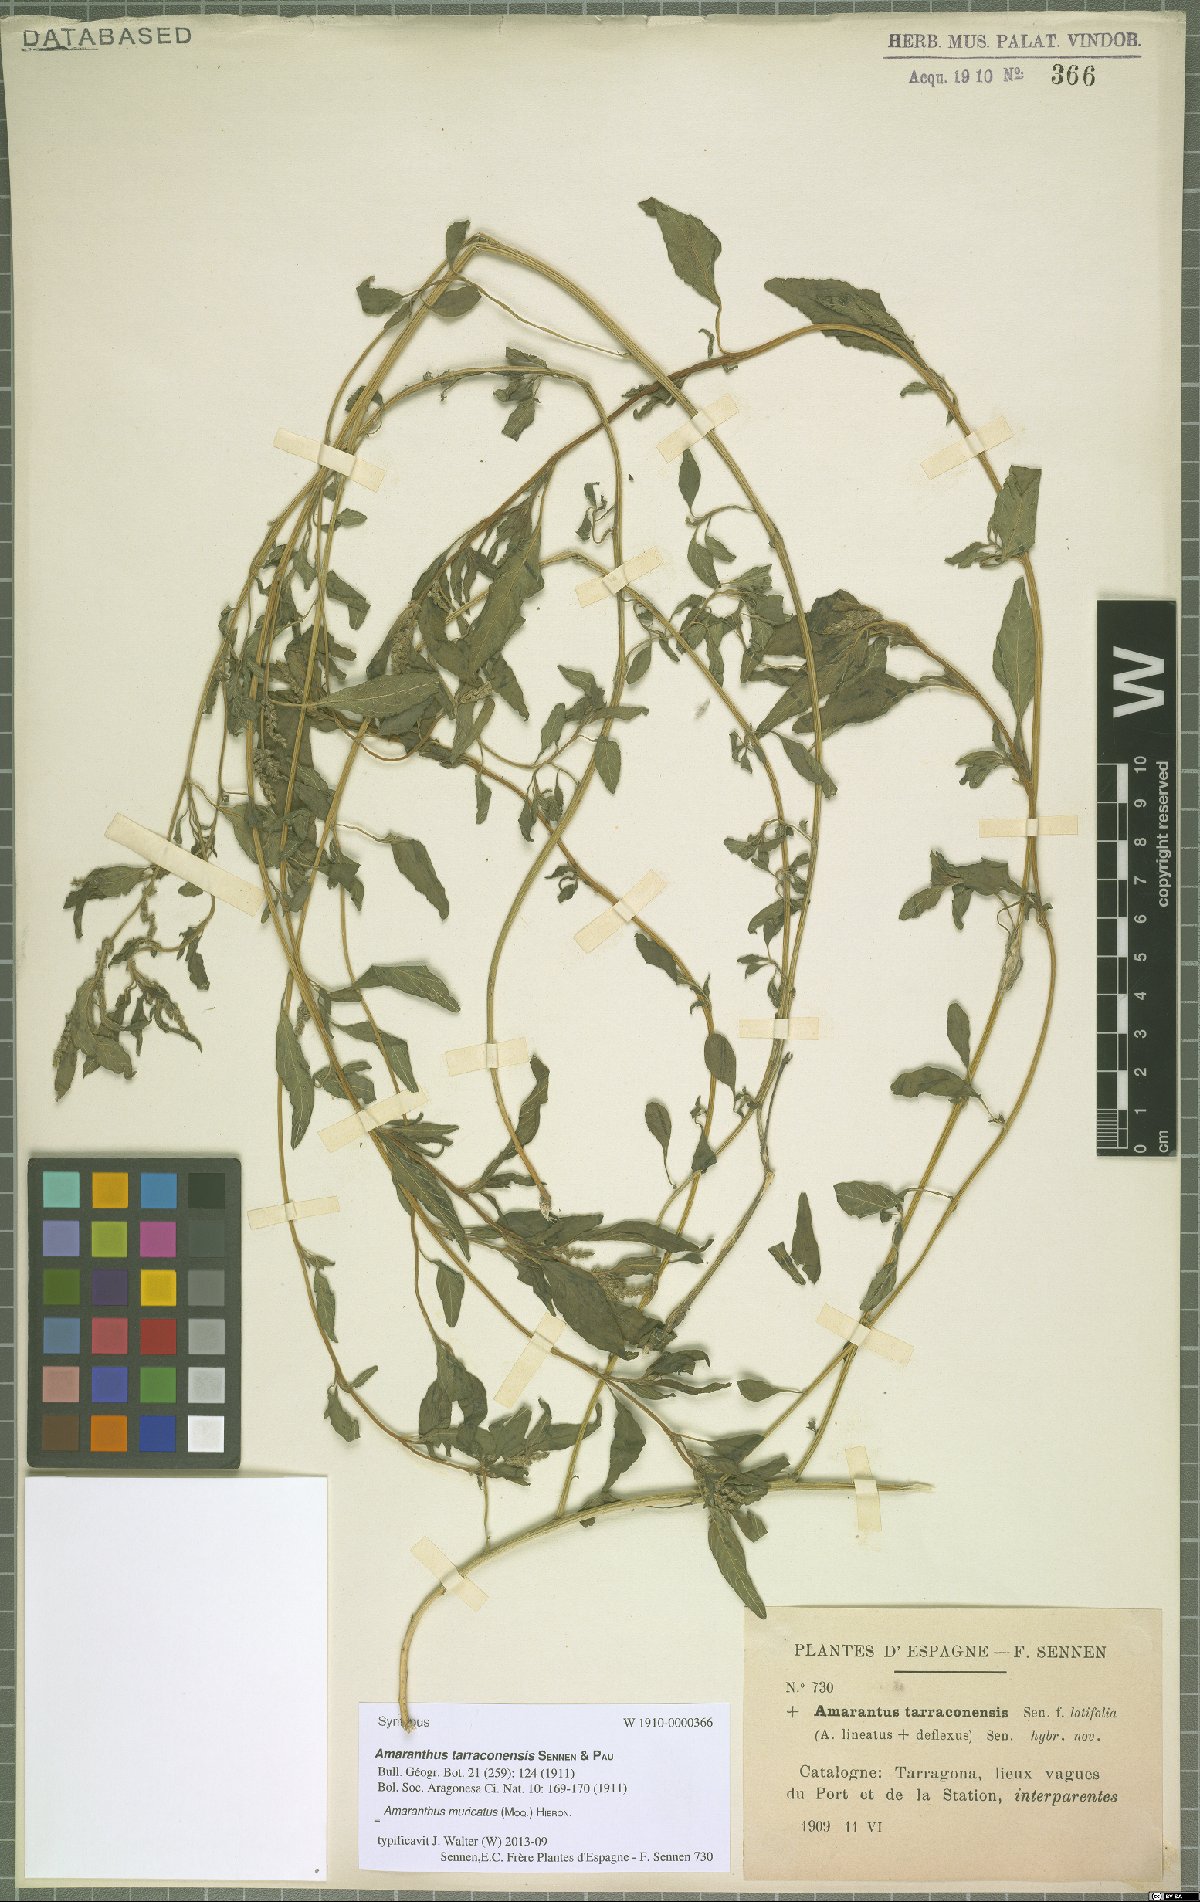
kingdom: Plantae
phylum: Tracheophyta
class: Magnoliopsida
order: Caryophyllales
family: Amaranthaceae
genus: Amaranthus
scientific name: Amaranthus muricatus
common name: African amaranth
